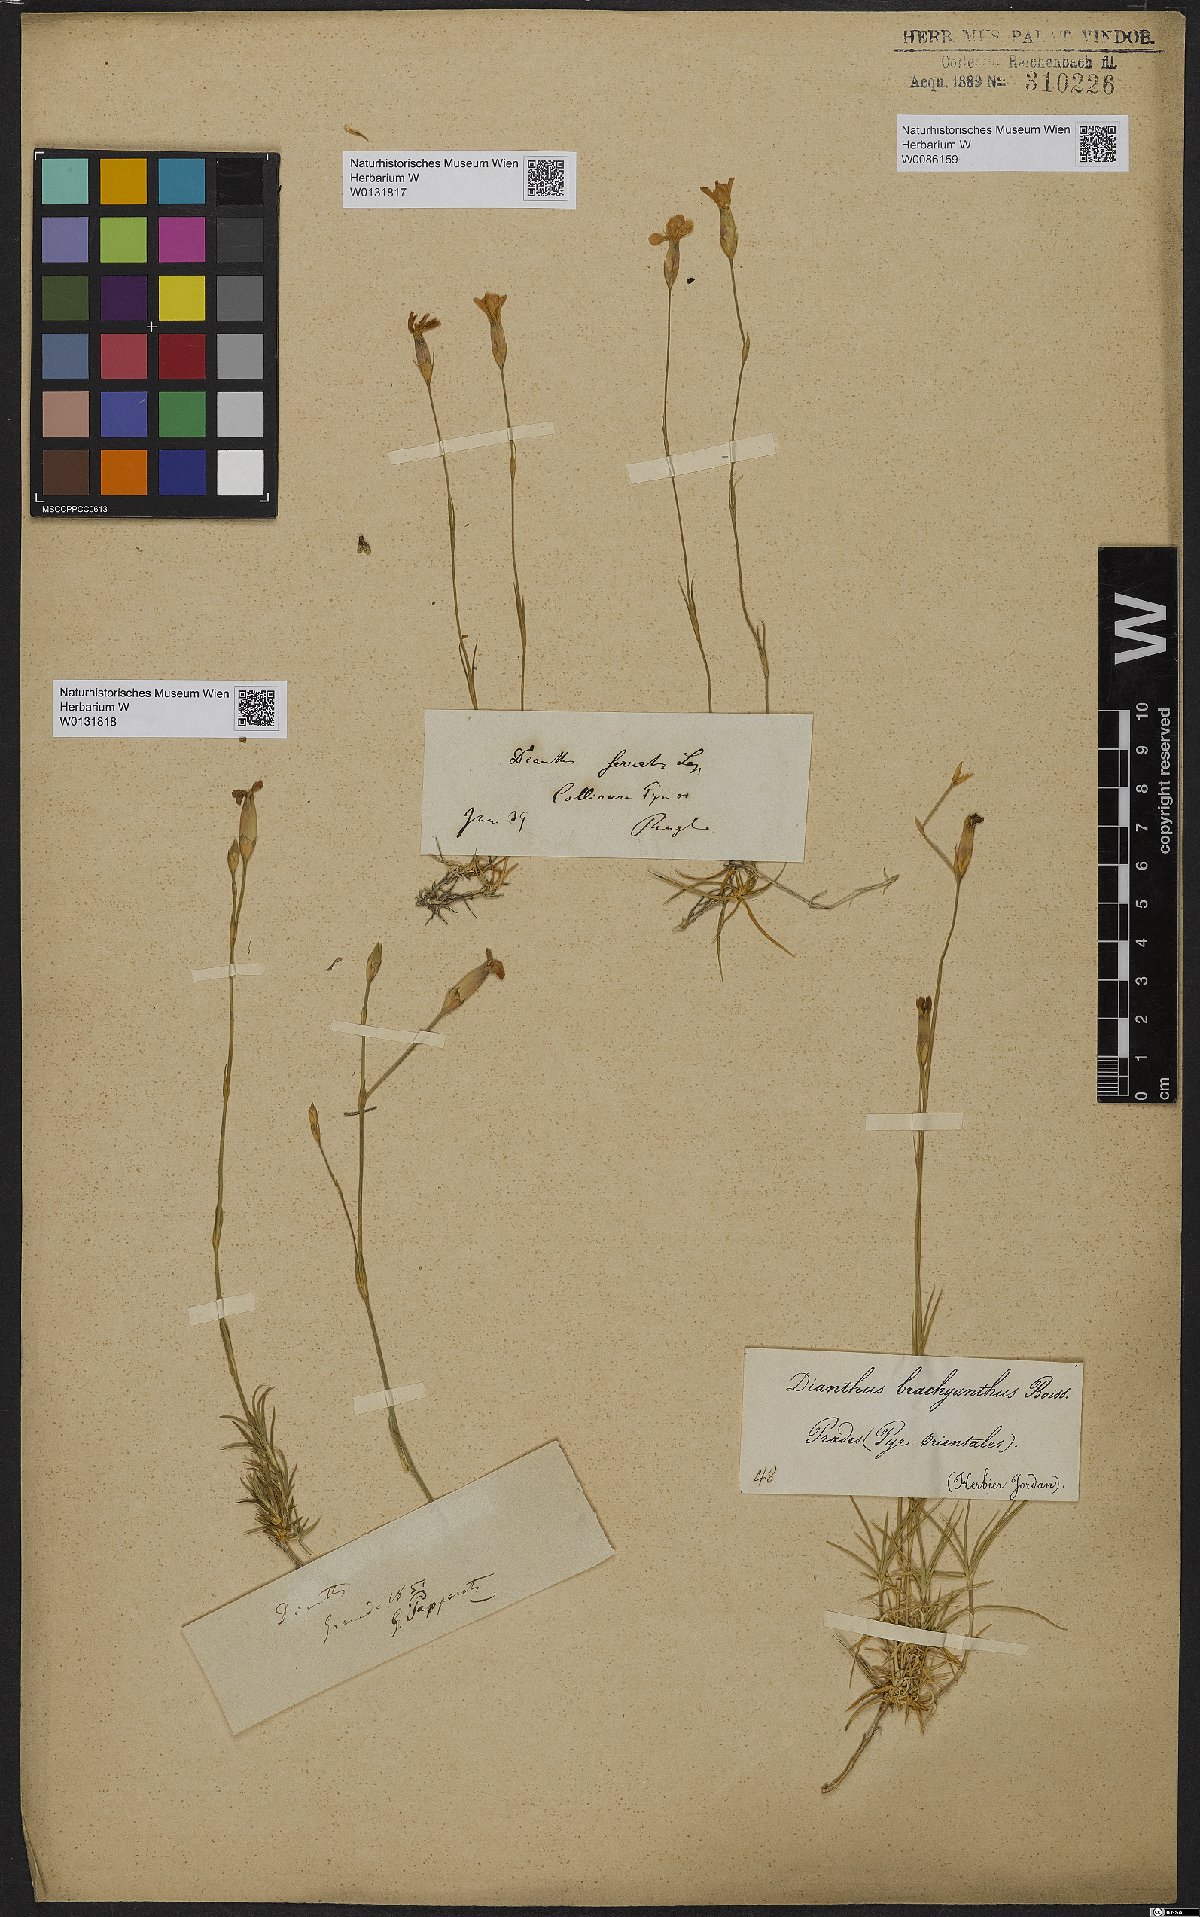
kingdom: Plantae
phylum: Tracheophyta
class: Magnoliopsida
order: Caryophyllales
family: Caryophyllaceae
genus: Dianthus
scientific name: Dianthus pungens
